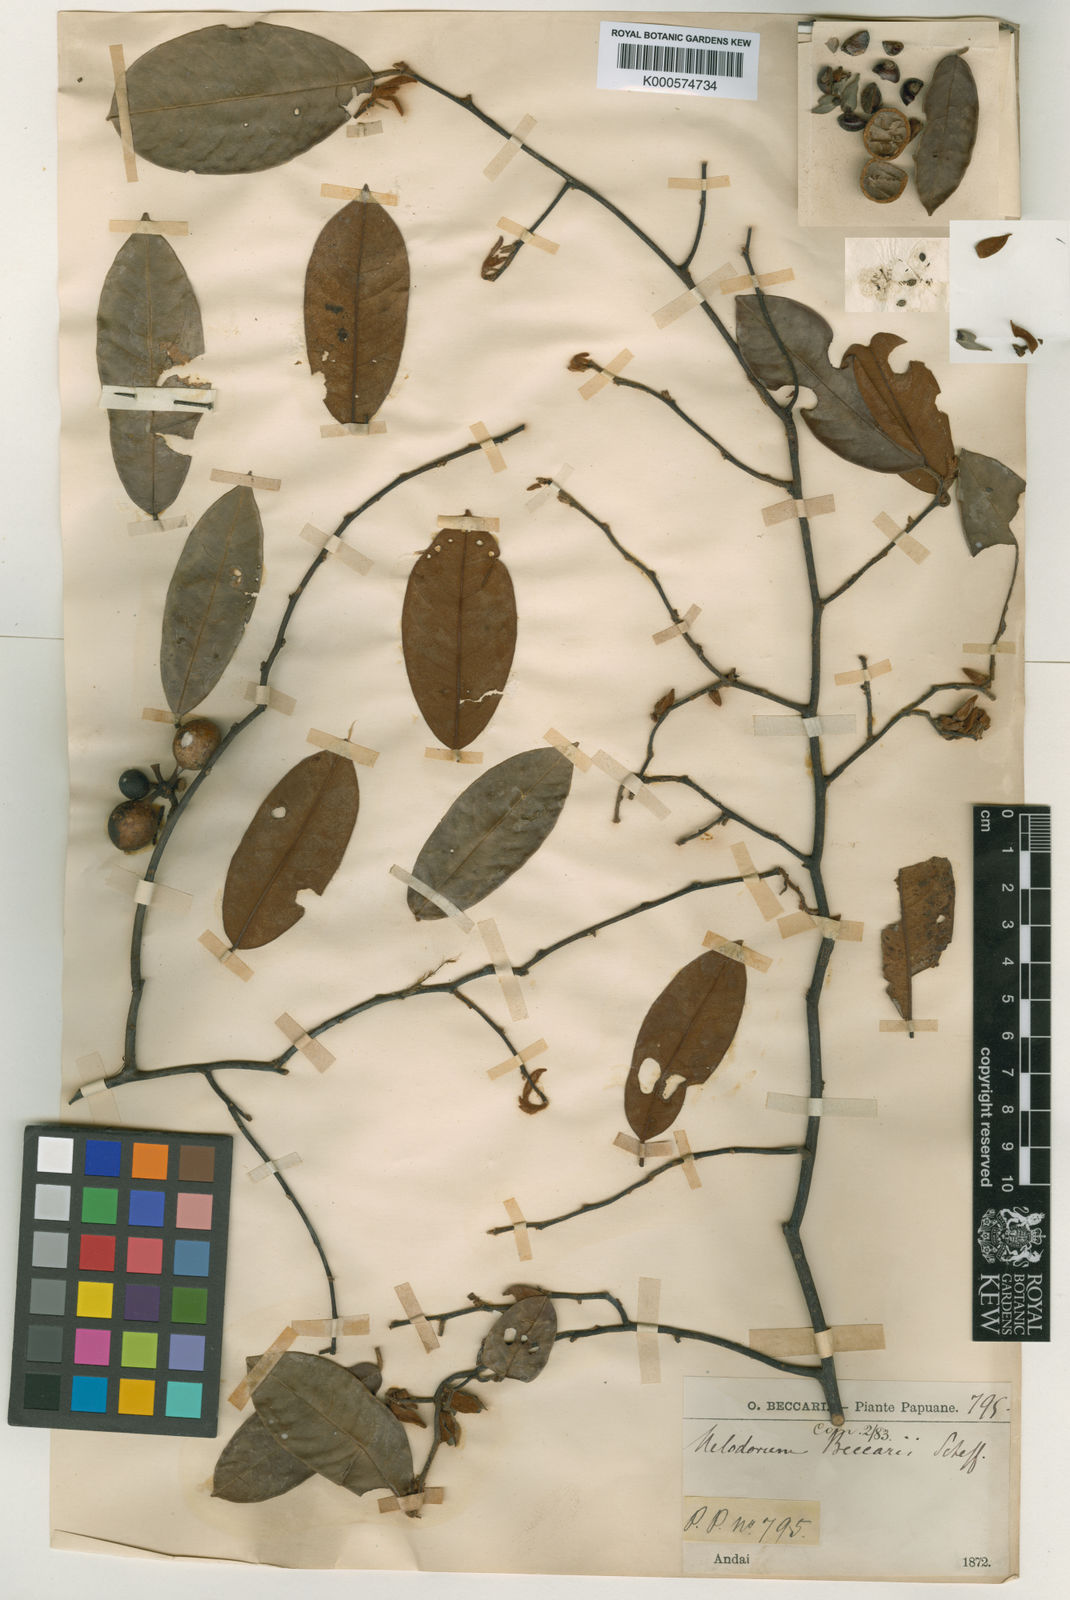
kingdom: Plantae
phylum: Tracheophyta
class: Magnoliopsida
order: Magnoliales
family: Annonaceae
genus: Mitrella
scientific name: Mitrella beccarii
